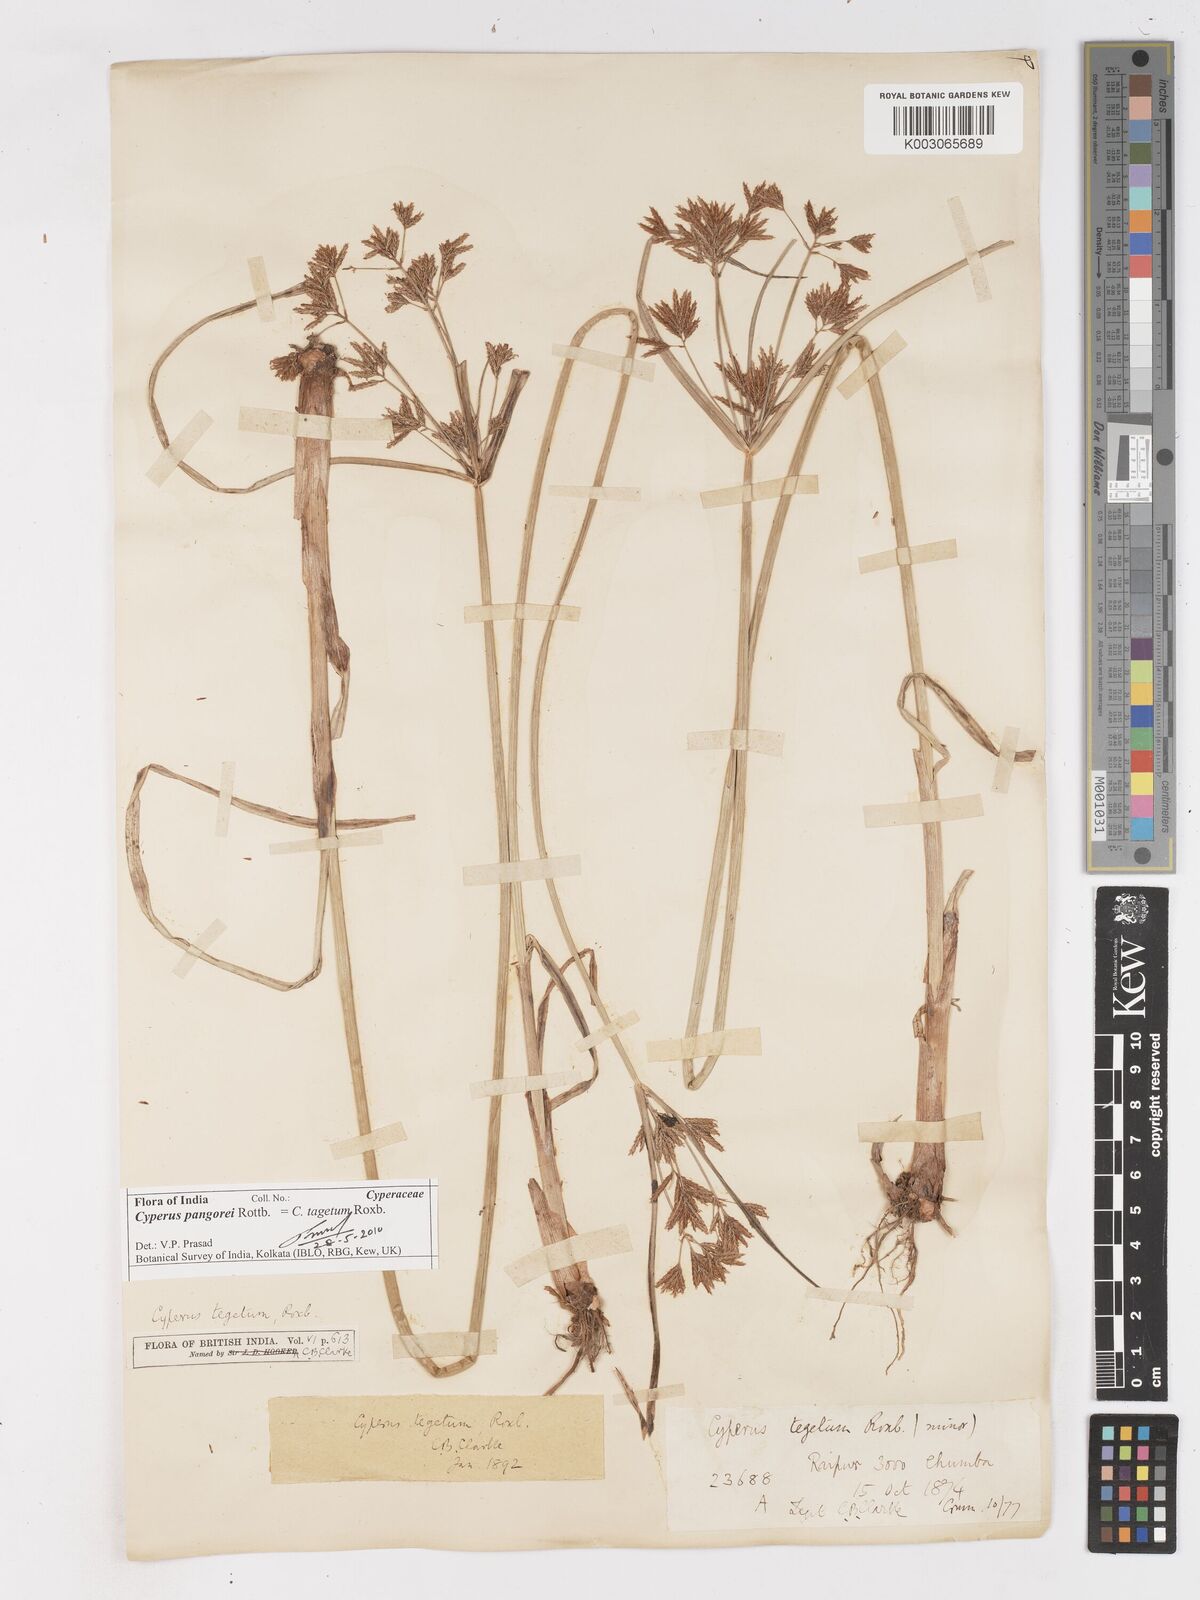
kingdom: Plantae
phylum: Tracheophyta
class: Liliopsida
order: Poales
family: Cyperaceae
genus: Cyperus
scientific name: Cyperus pangorei
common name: Mat sedge
